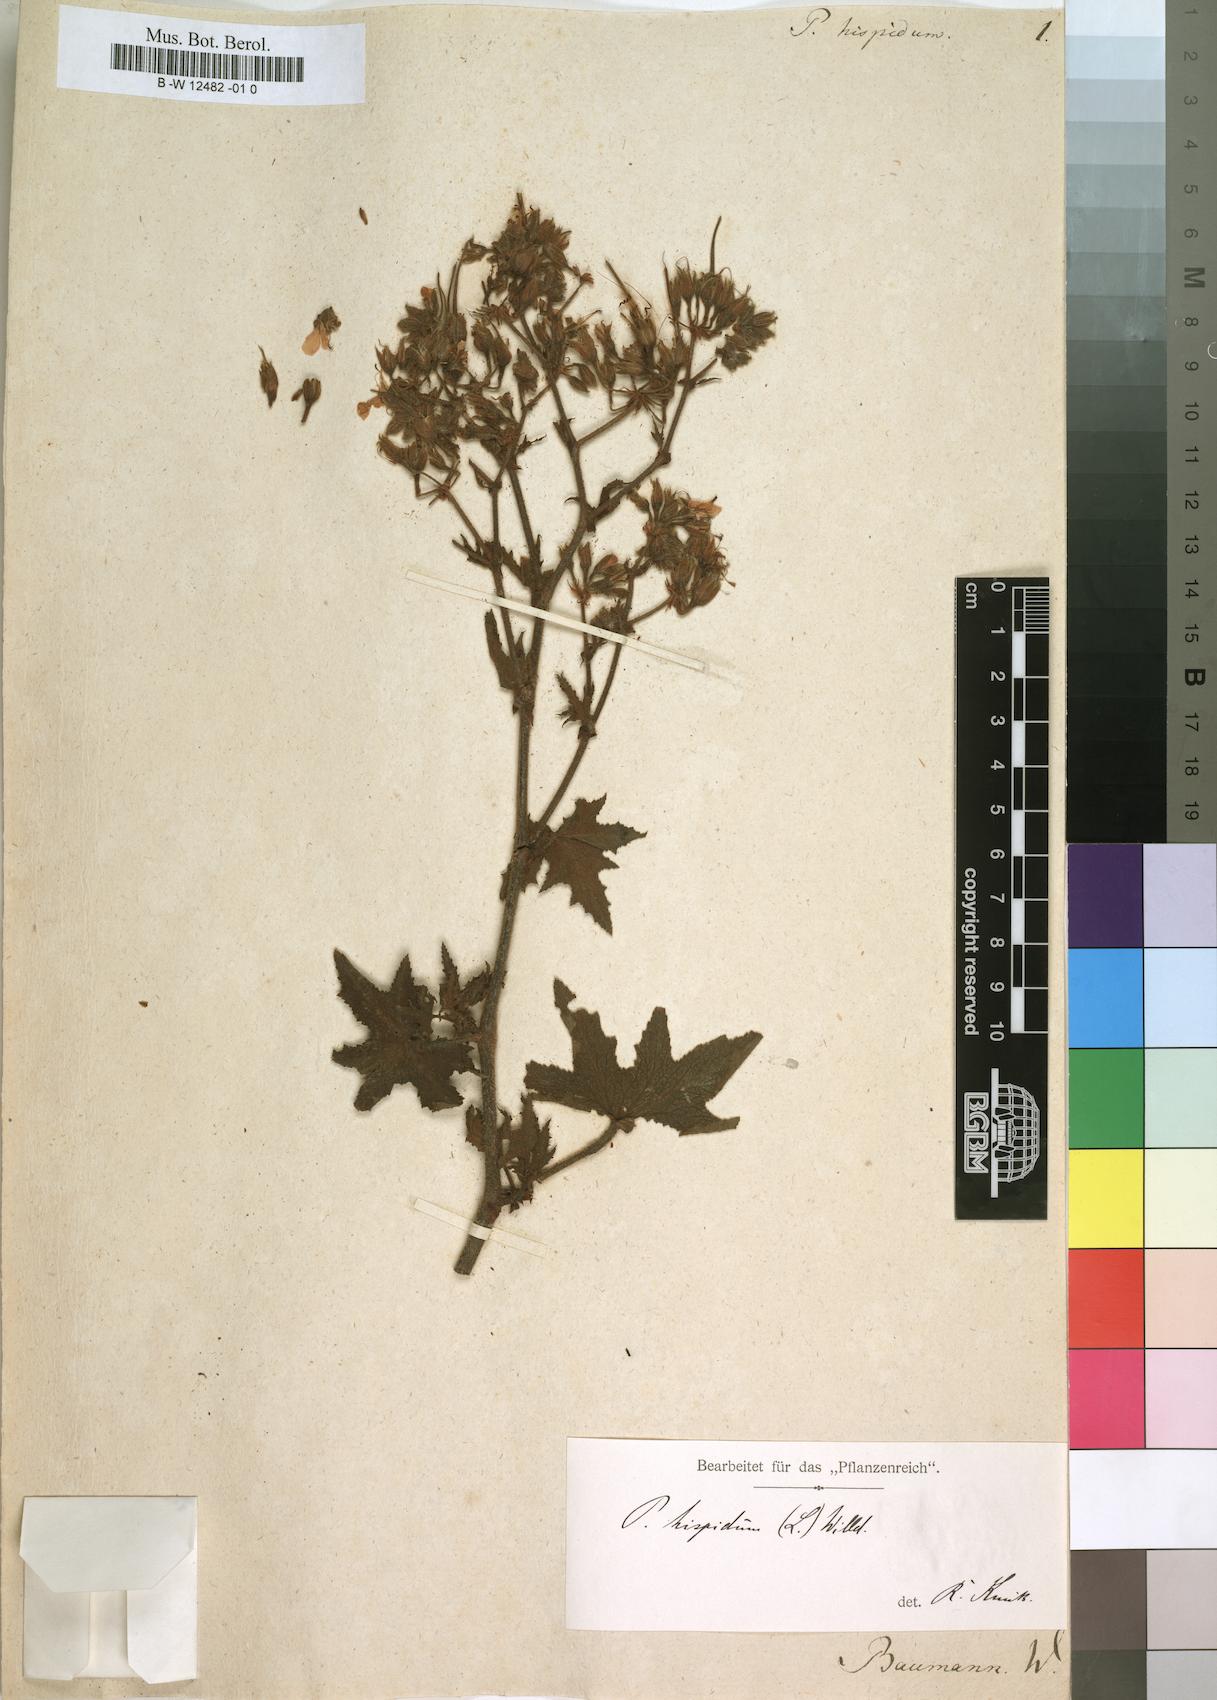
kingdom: Plantae
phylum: Tracheophyta
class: Magnoliopsida
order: Geraniales
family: Geraniaceae
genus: Pelargonium
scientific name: Pelargonium hispidum
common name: Hispid pelargonium
